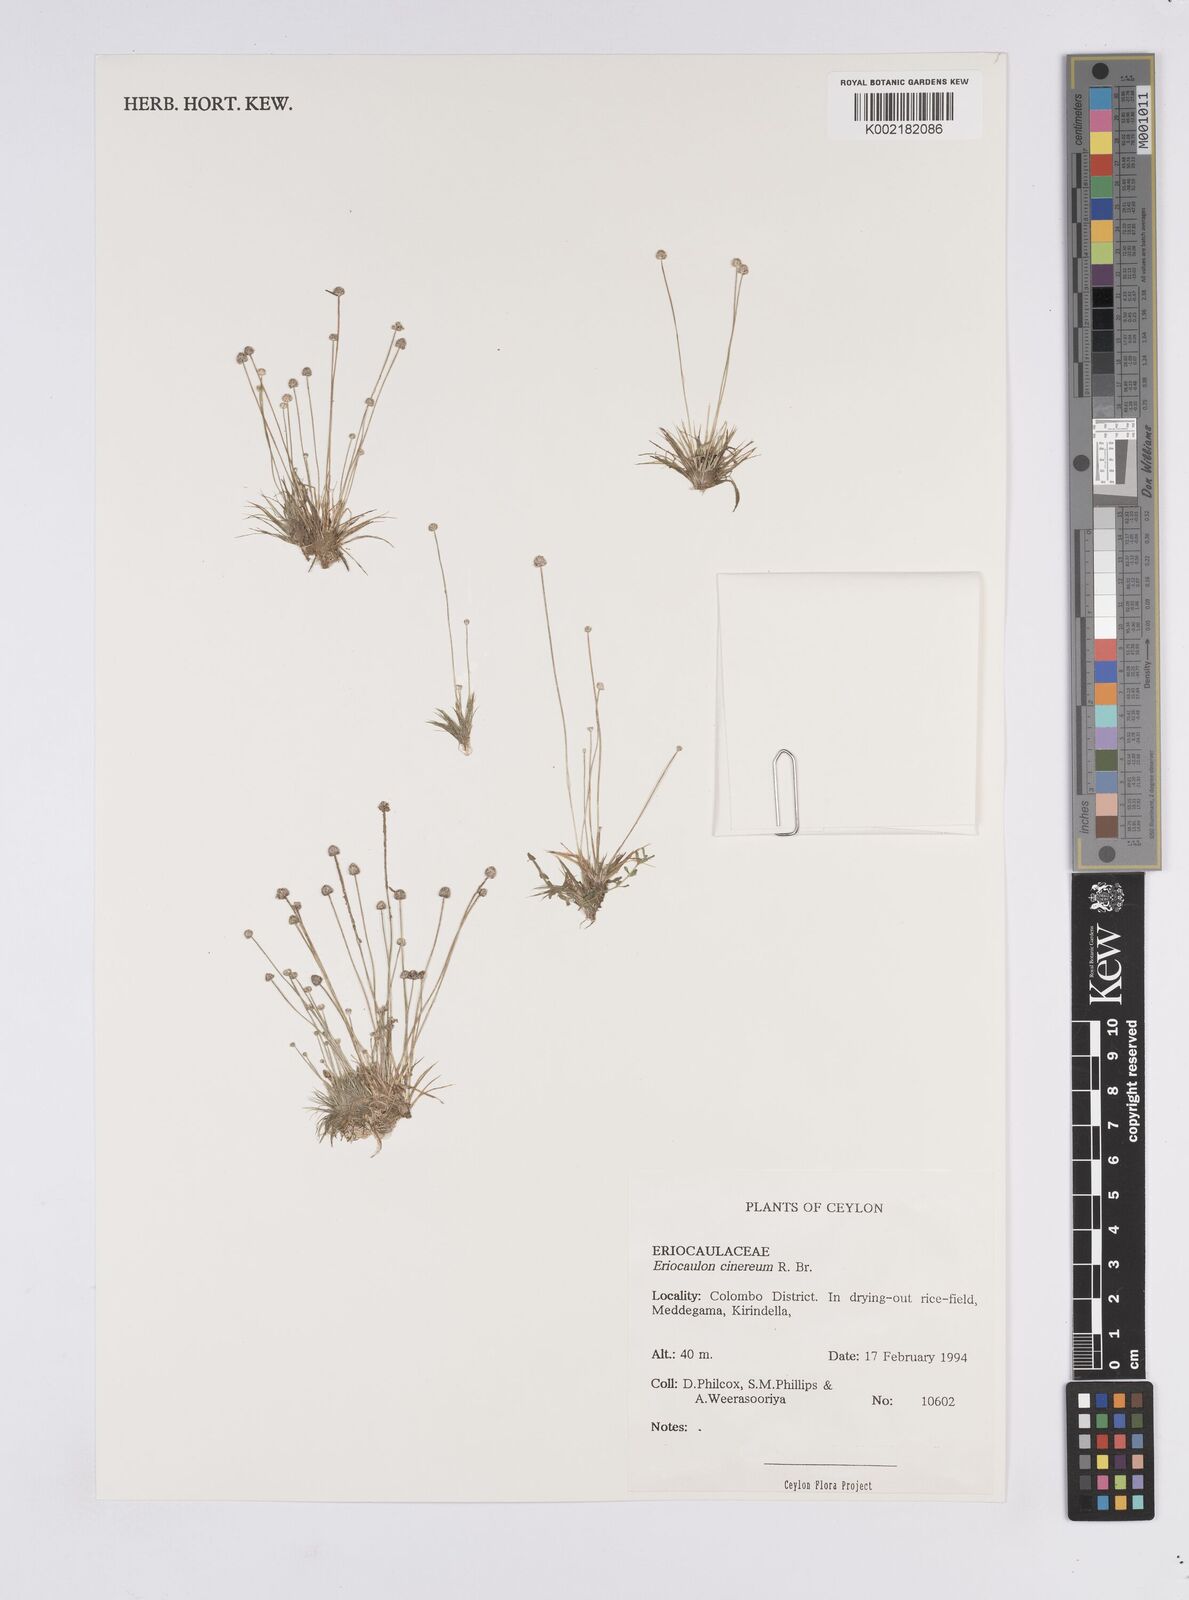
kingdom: Plantae
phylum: Tracheophyta
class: Liliopsida
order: Poales
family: Eriocaulaceae
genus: Eriocaulon
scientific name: Eriocaulon cinereum
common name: Ashy pipewort
